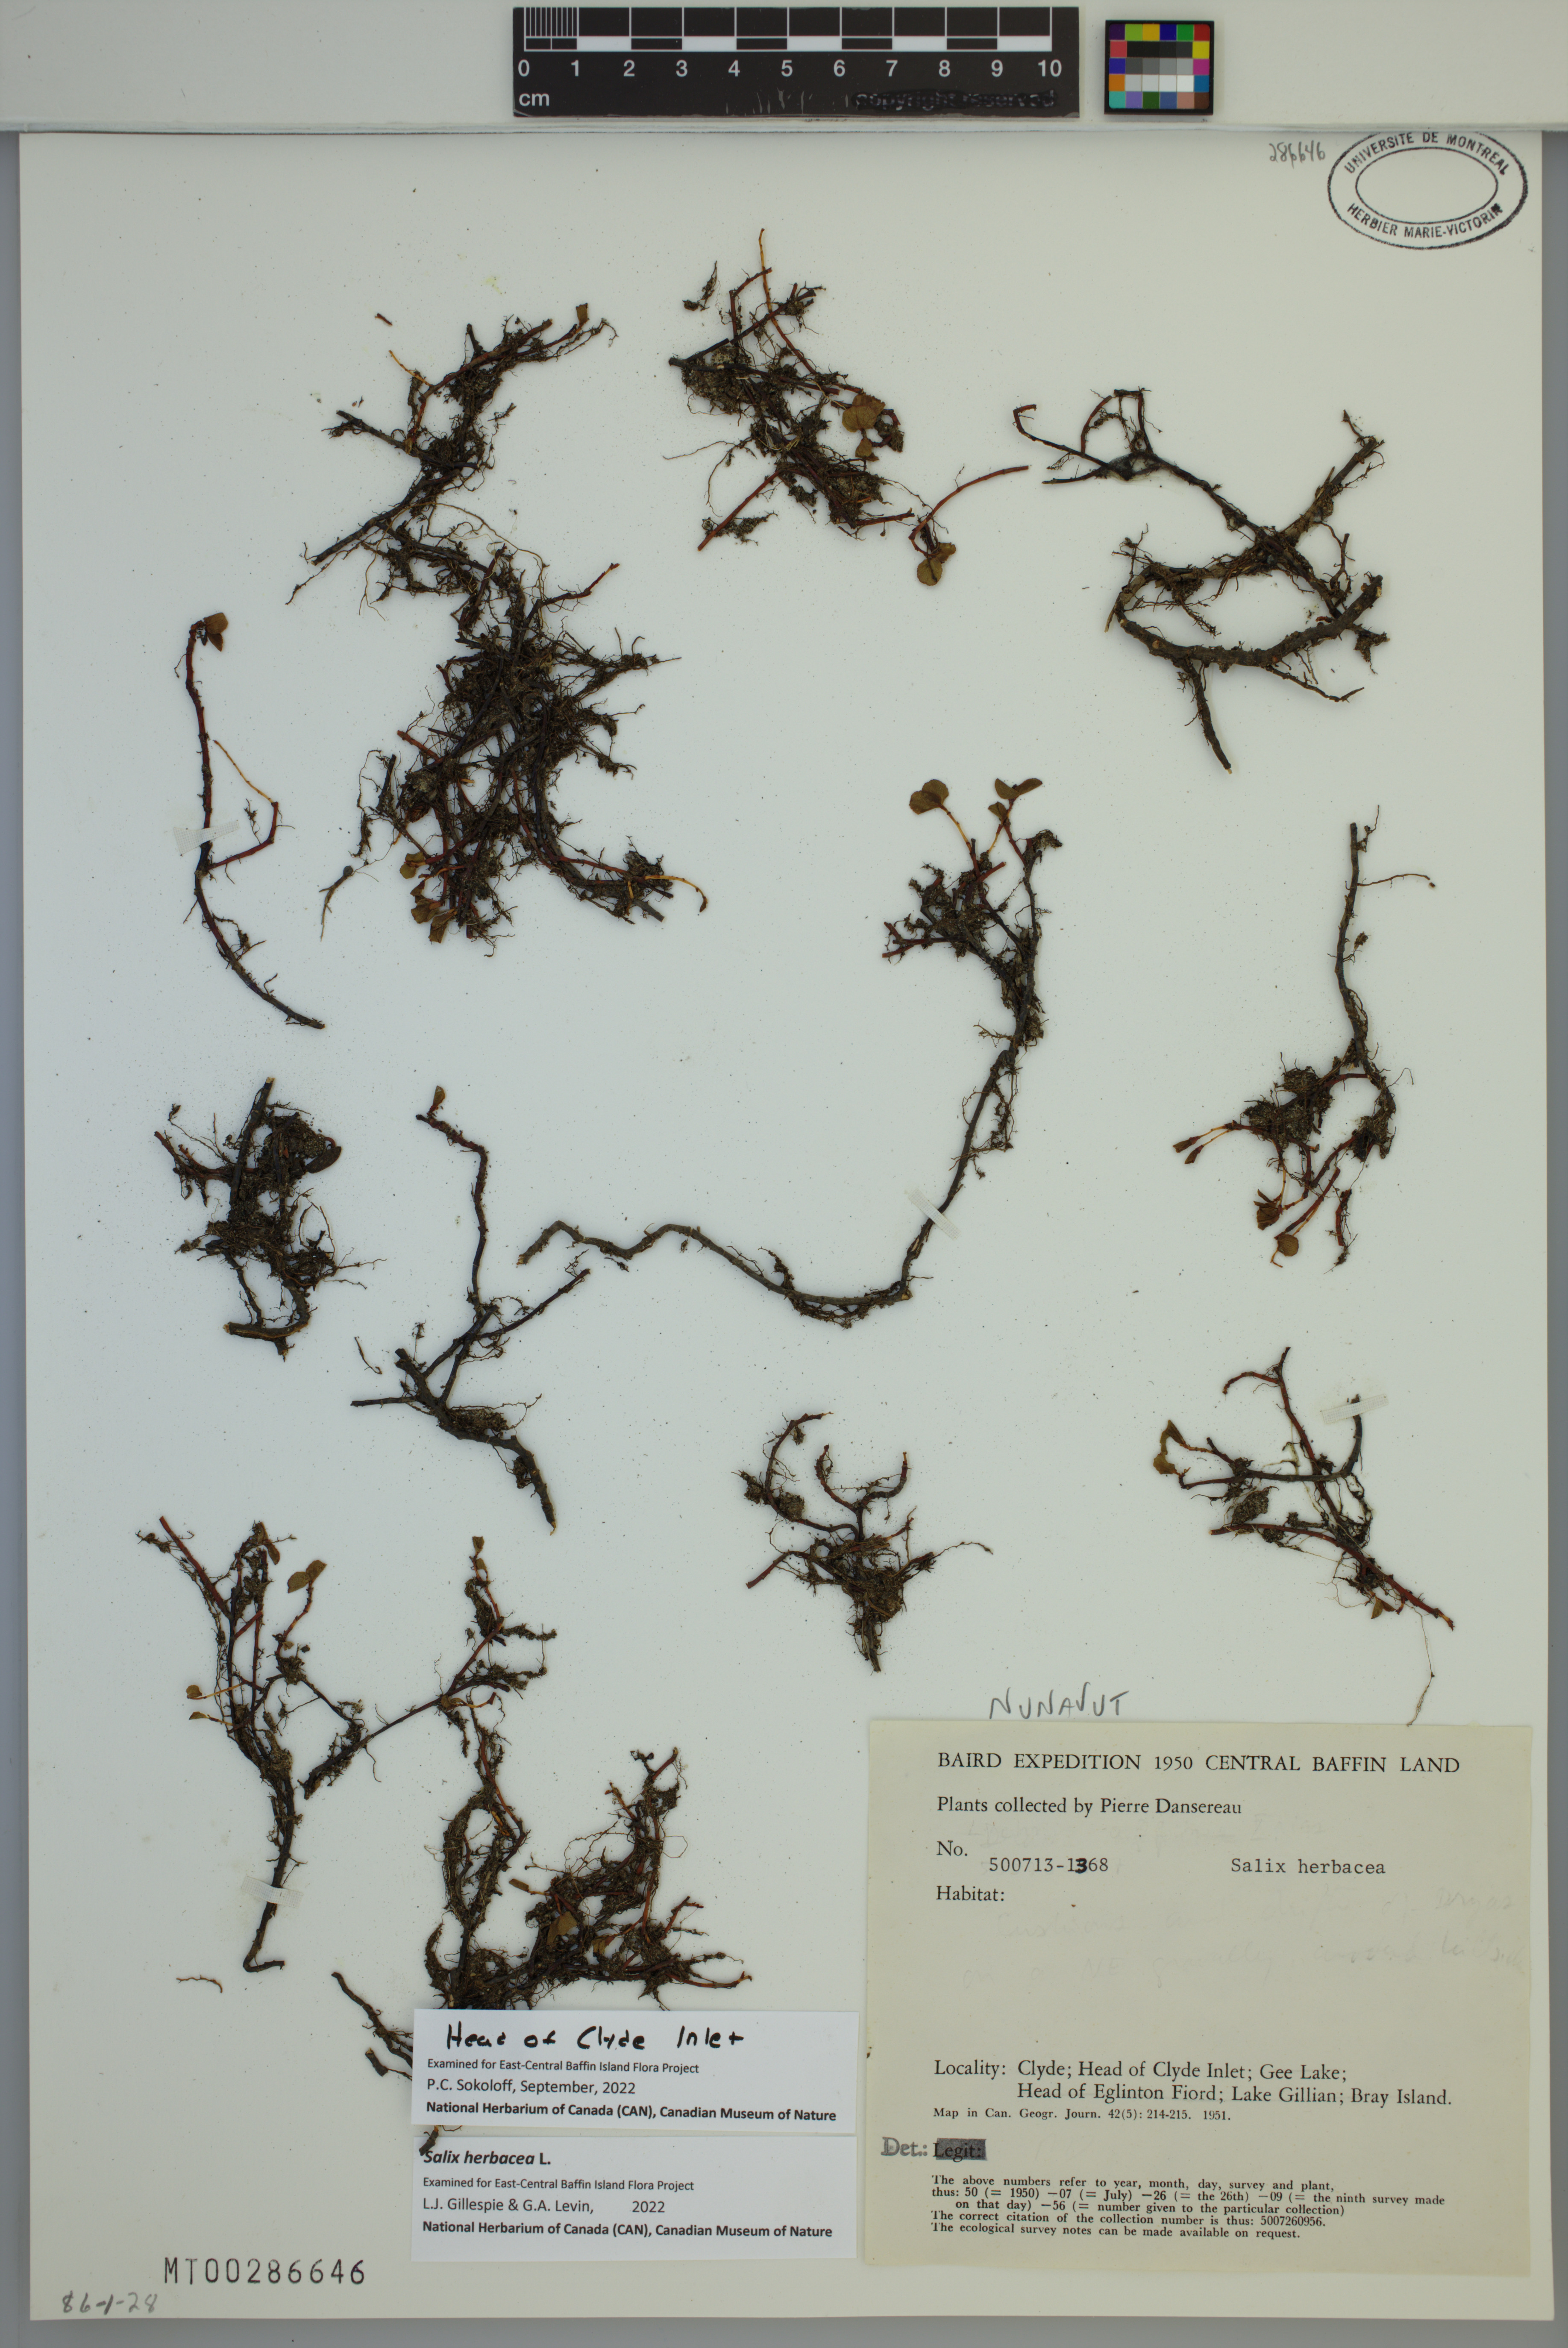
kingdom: Plantae
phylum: Tracheophyta
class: Magnoliopsida
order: Malpighiales
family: Salicaceae
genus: Salix
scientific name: Salix herbacea
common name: Dwarf willow
